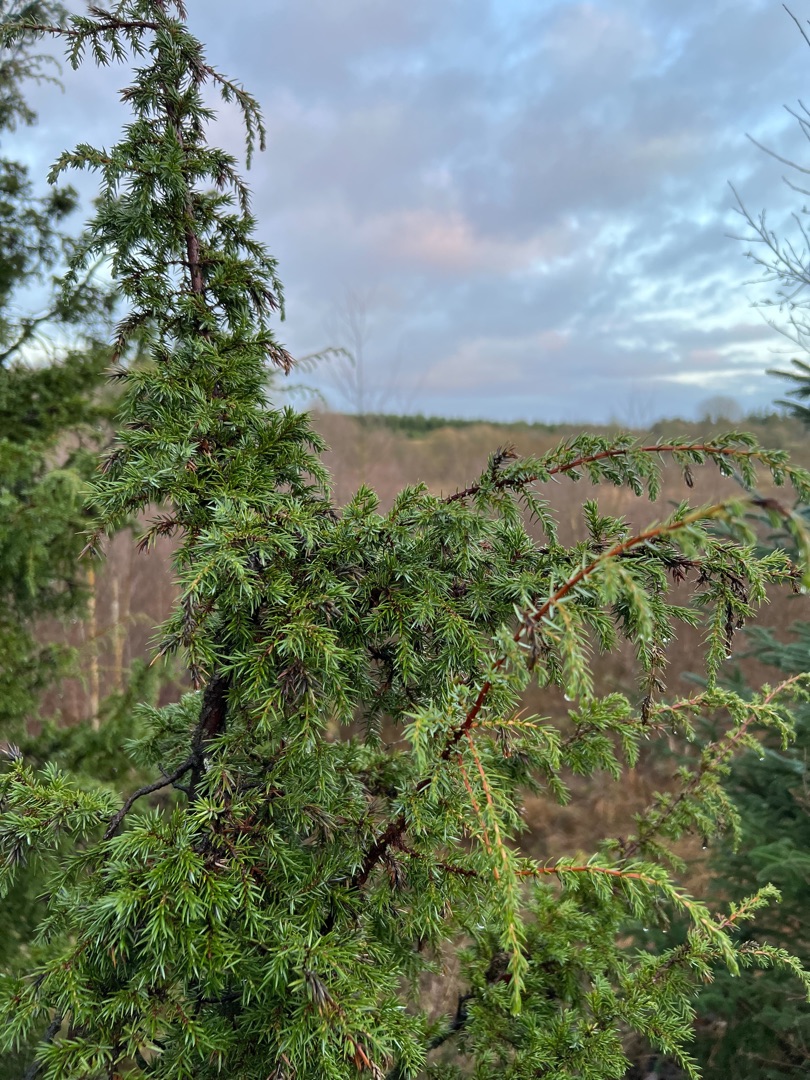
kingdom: Plantae
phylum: Tracheophyta
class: Pinopsida
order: Pinales
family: Cupressaceae
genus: Juniperus
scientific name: Juniperus communis
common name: Almindelig ene
